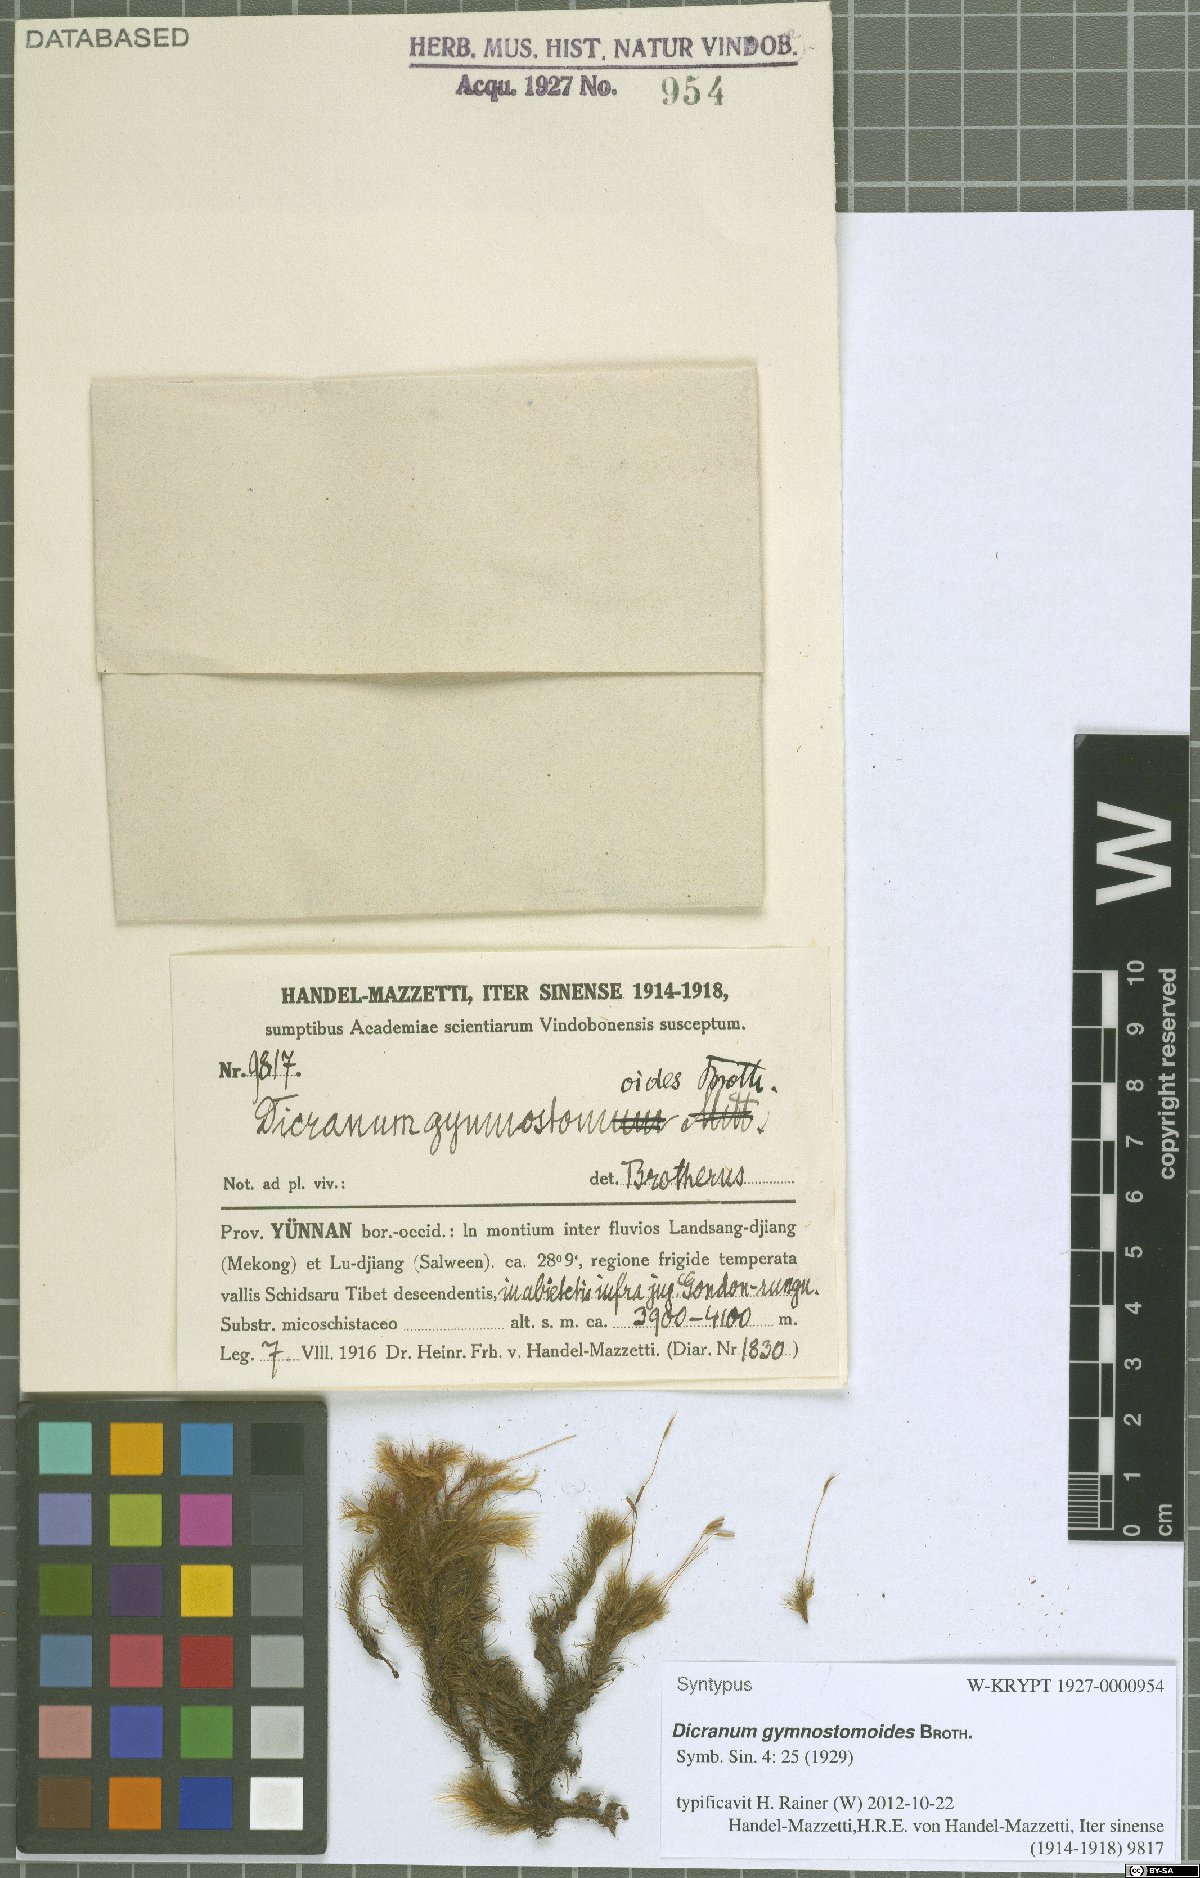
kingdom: Plantae
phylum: Bryophyta
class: Bryopsida
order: Dicranales
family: Dicranaceae
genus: Pseudochorisodontium
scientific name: Pseudochorisodontium gymnostomum
